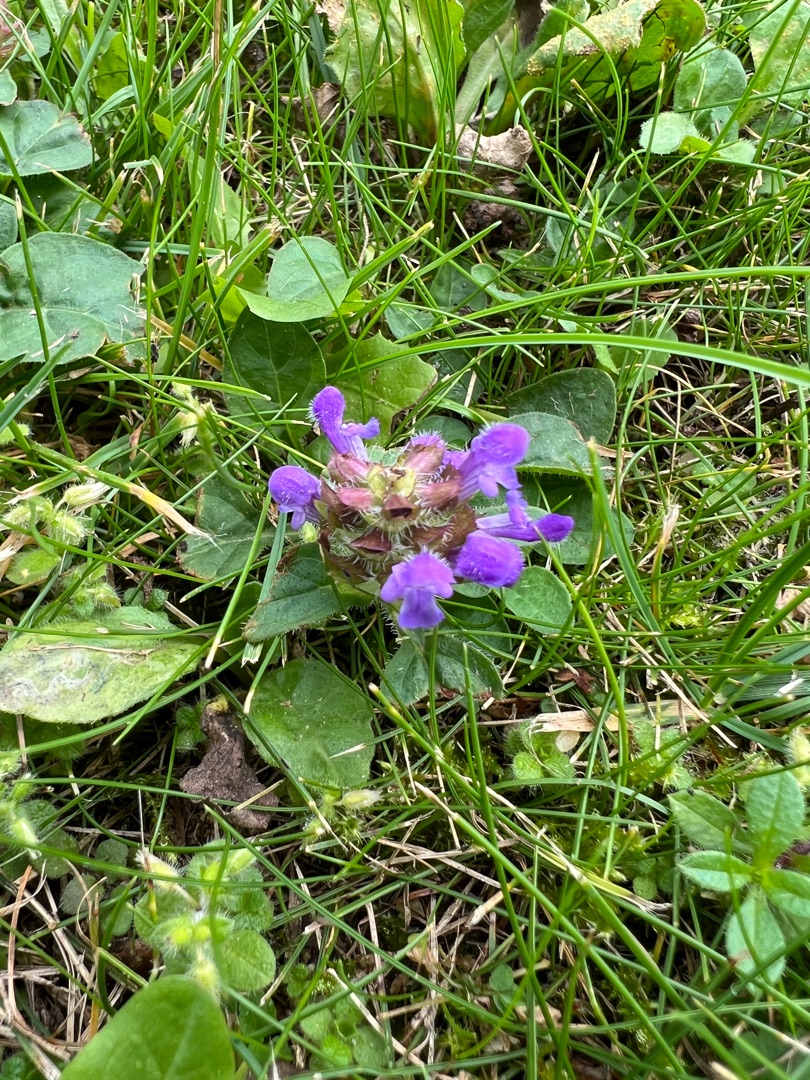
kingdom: Plantae
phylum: Tracheophyta
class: Magnoliopsida
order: Lamiales
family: Lamiaceae
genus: Prunella
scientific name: Prunella vulgaris
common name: Almindelig brunelle
